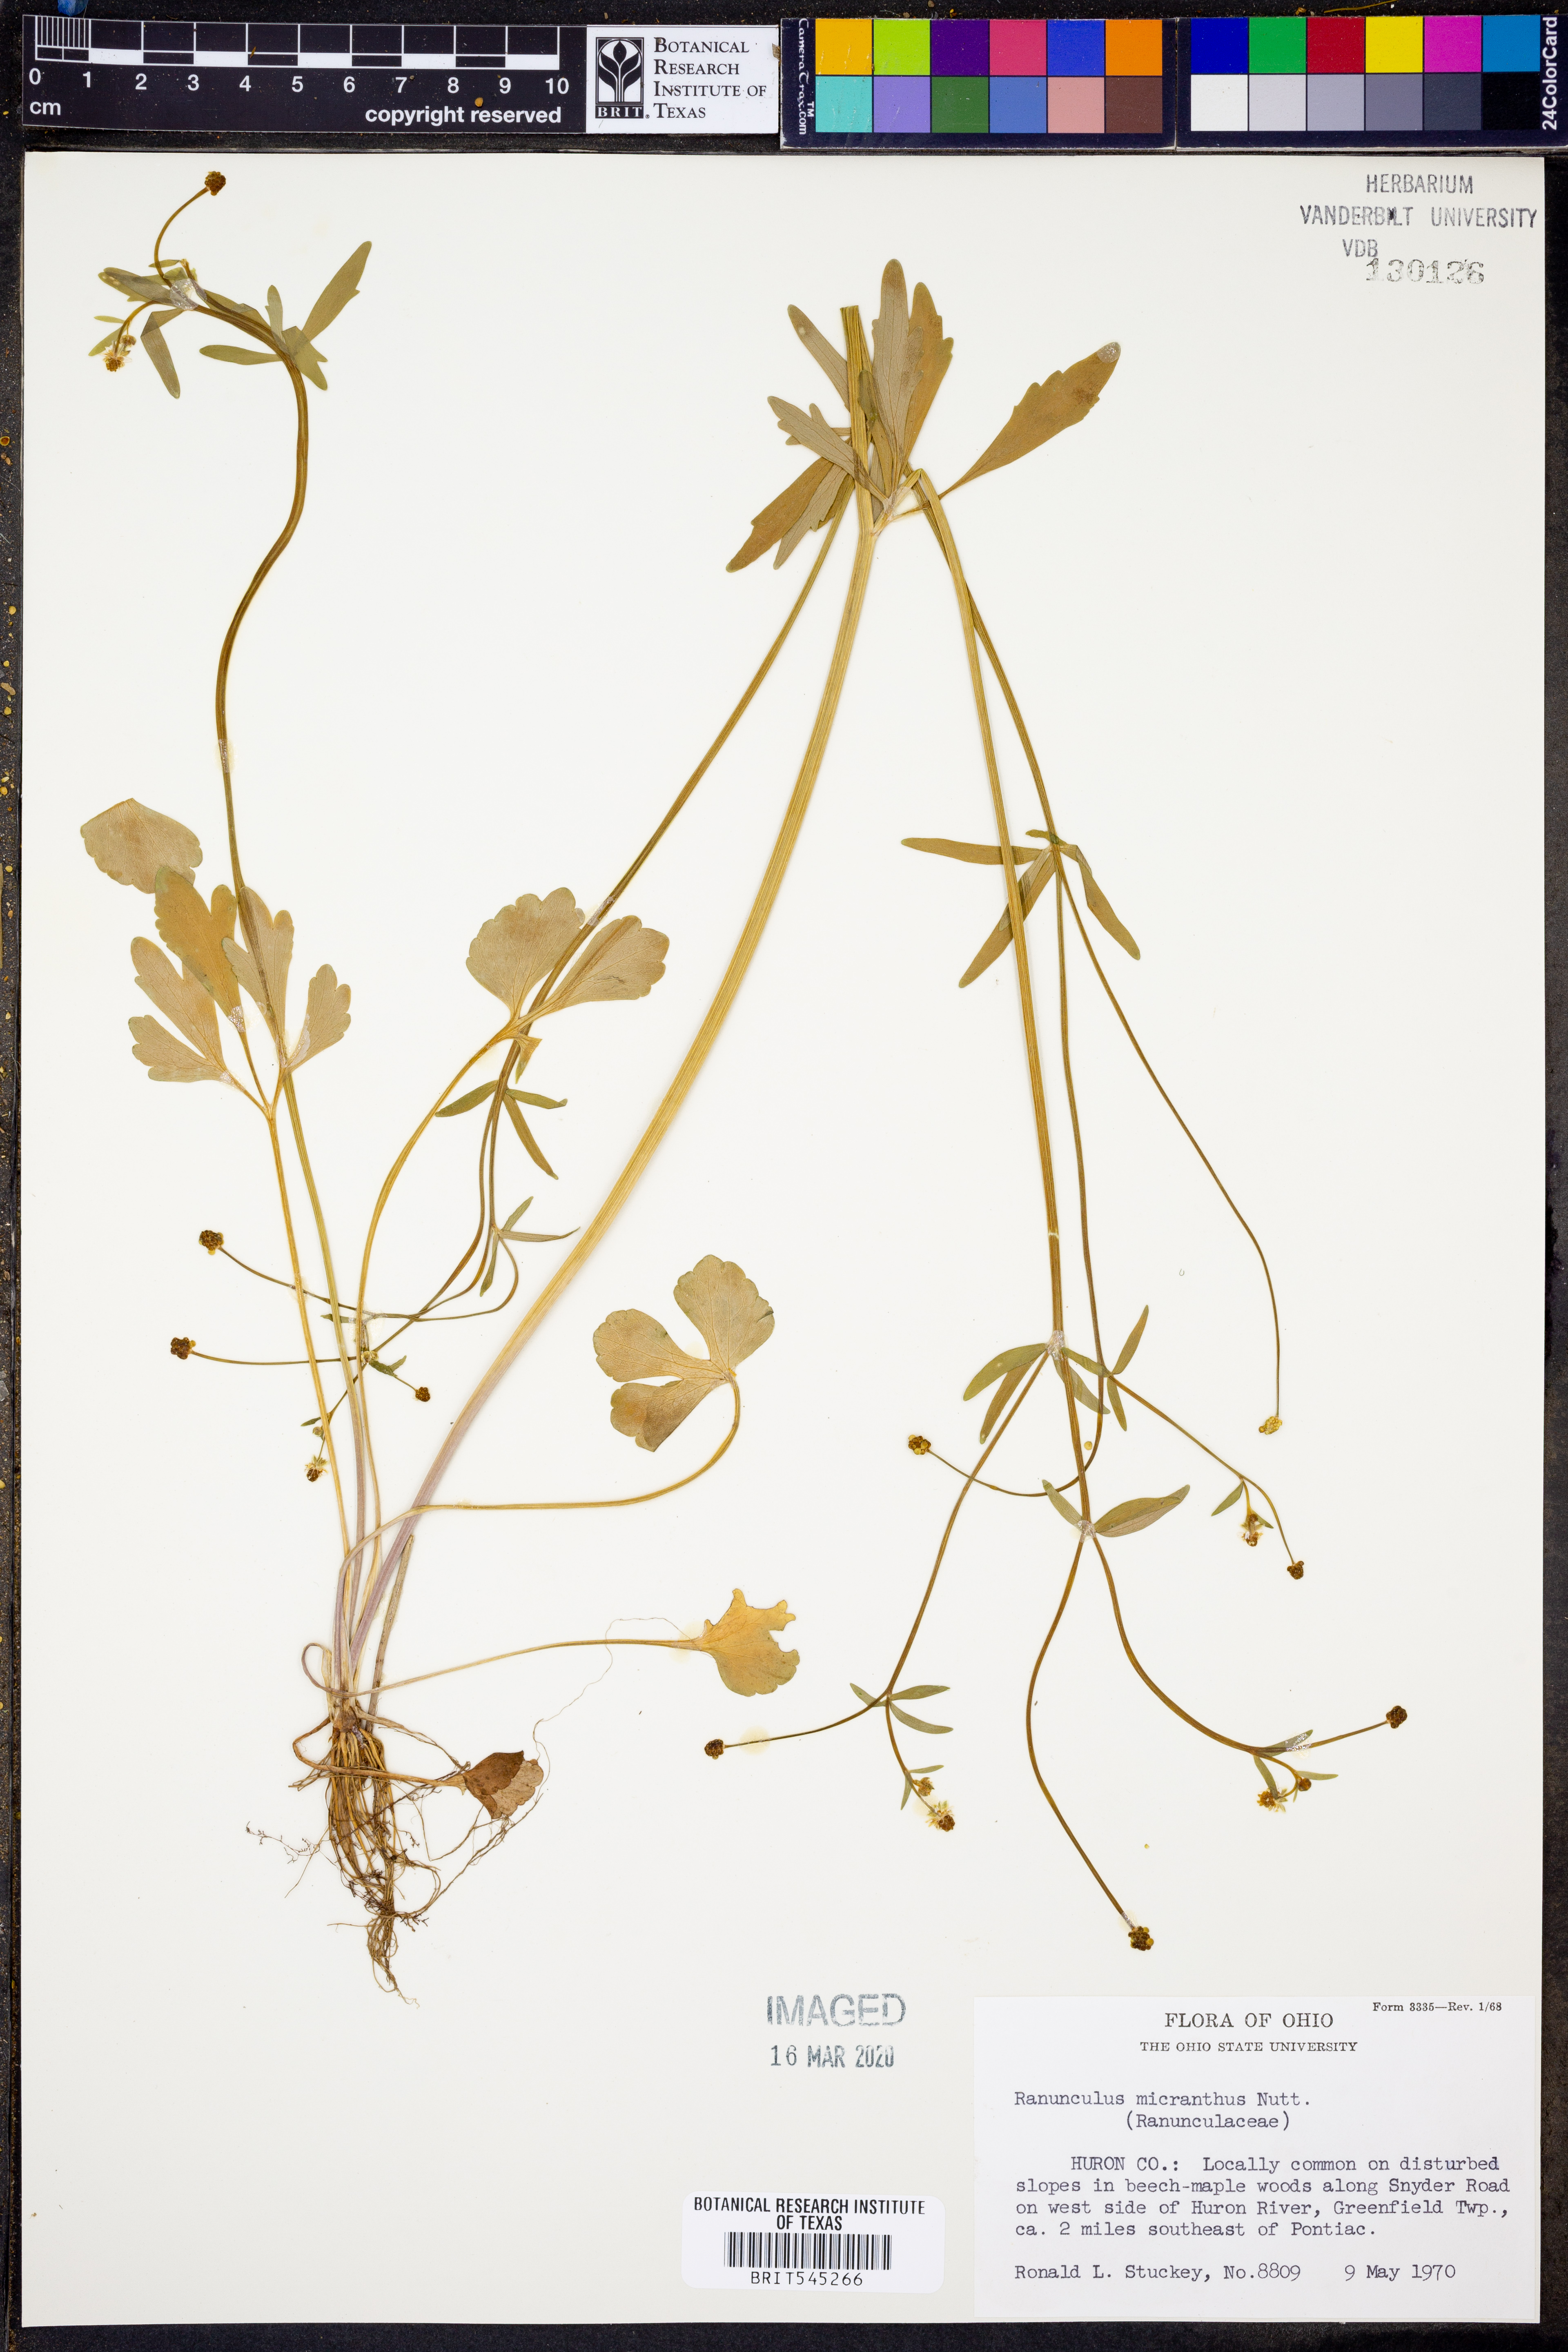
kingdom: Plantae
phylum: Tracheophyta
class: Magnoliopsida
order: Ranunculales
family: Ranunculaceae
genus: Ranunculus
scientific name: Ranunculus micranthus
